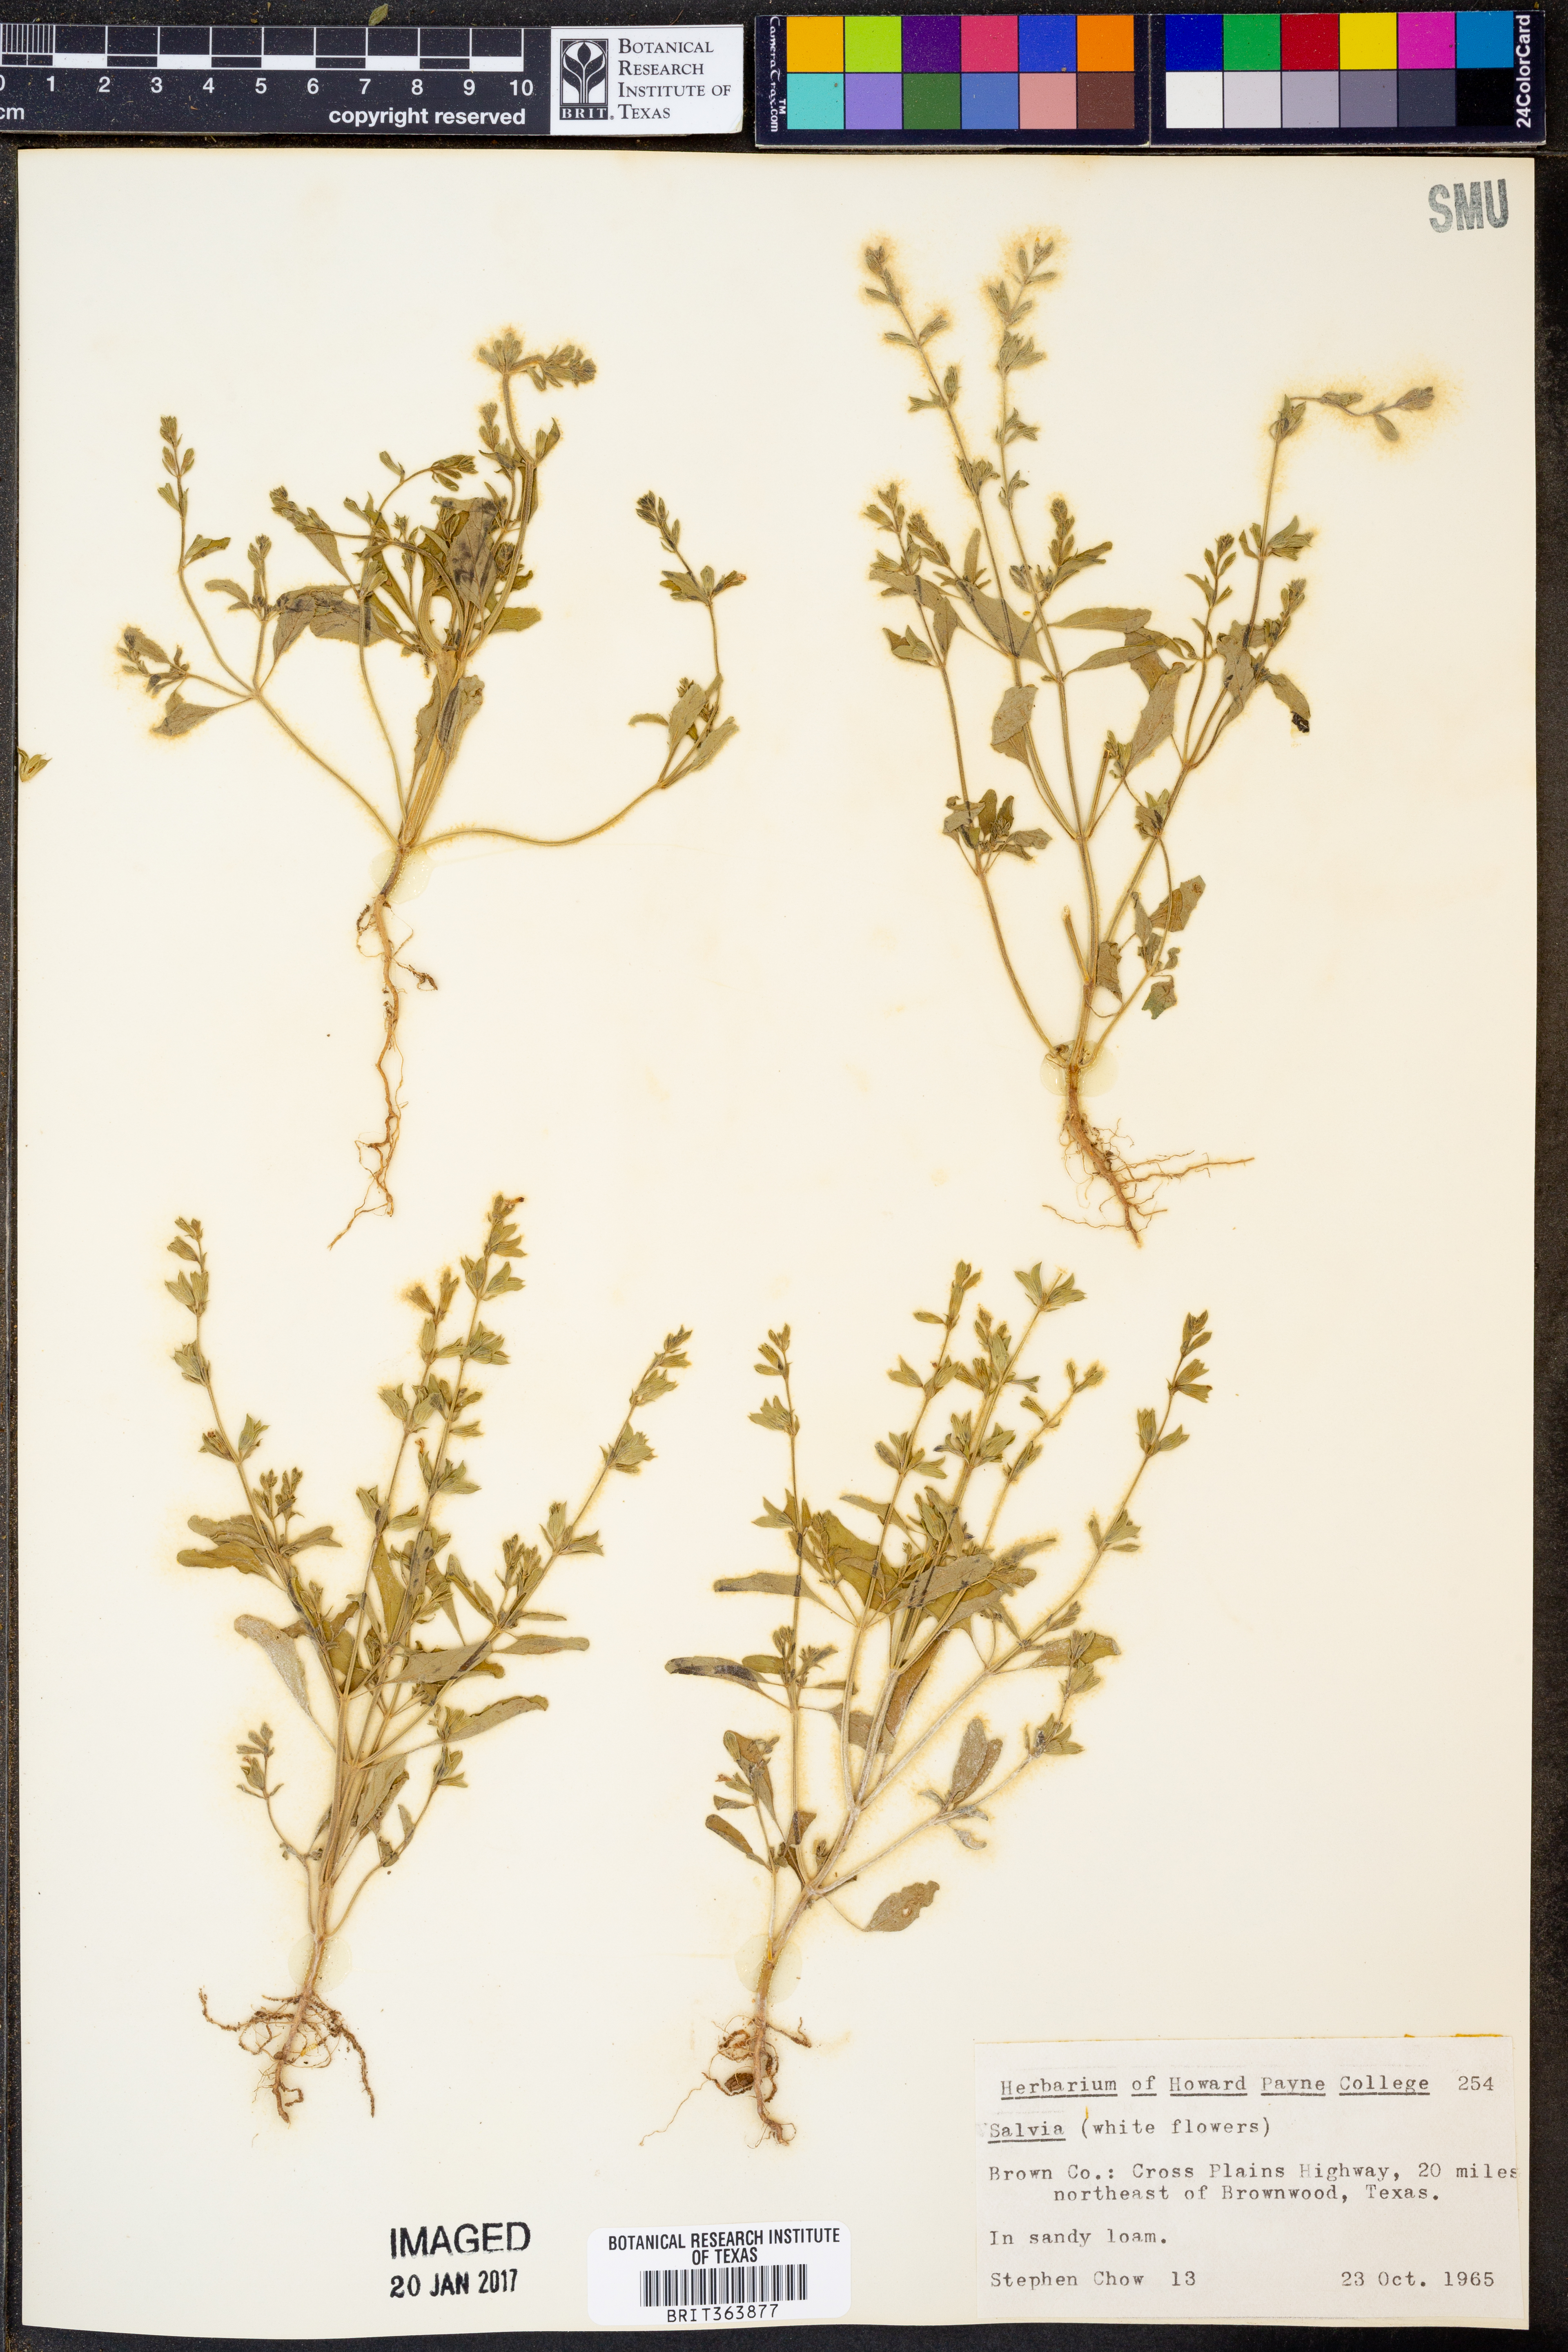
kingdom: Plantae
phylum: Tracheophyta
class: Magnoliopsida
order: Lamiales
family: Lamiaceae
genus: Salvia
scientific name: Salvia
